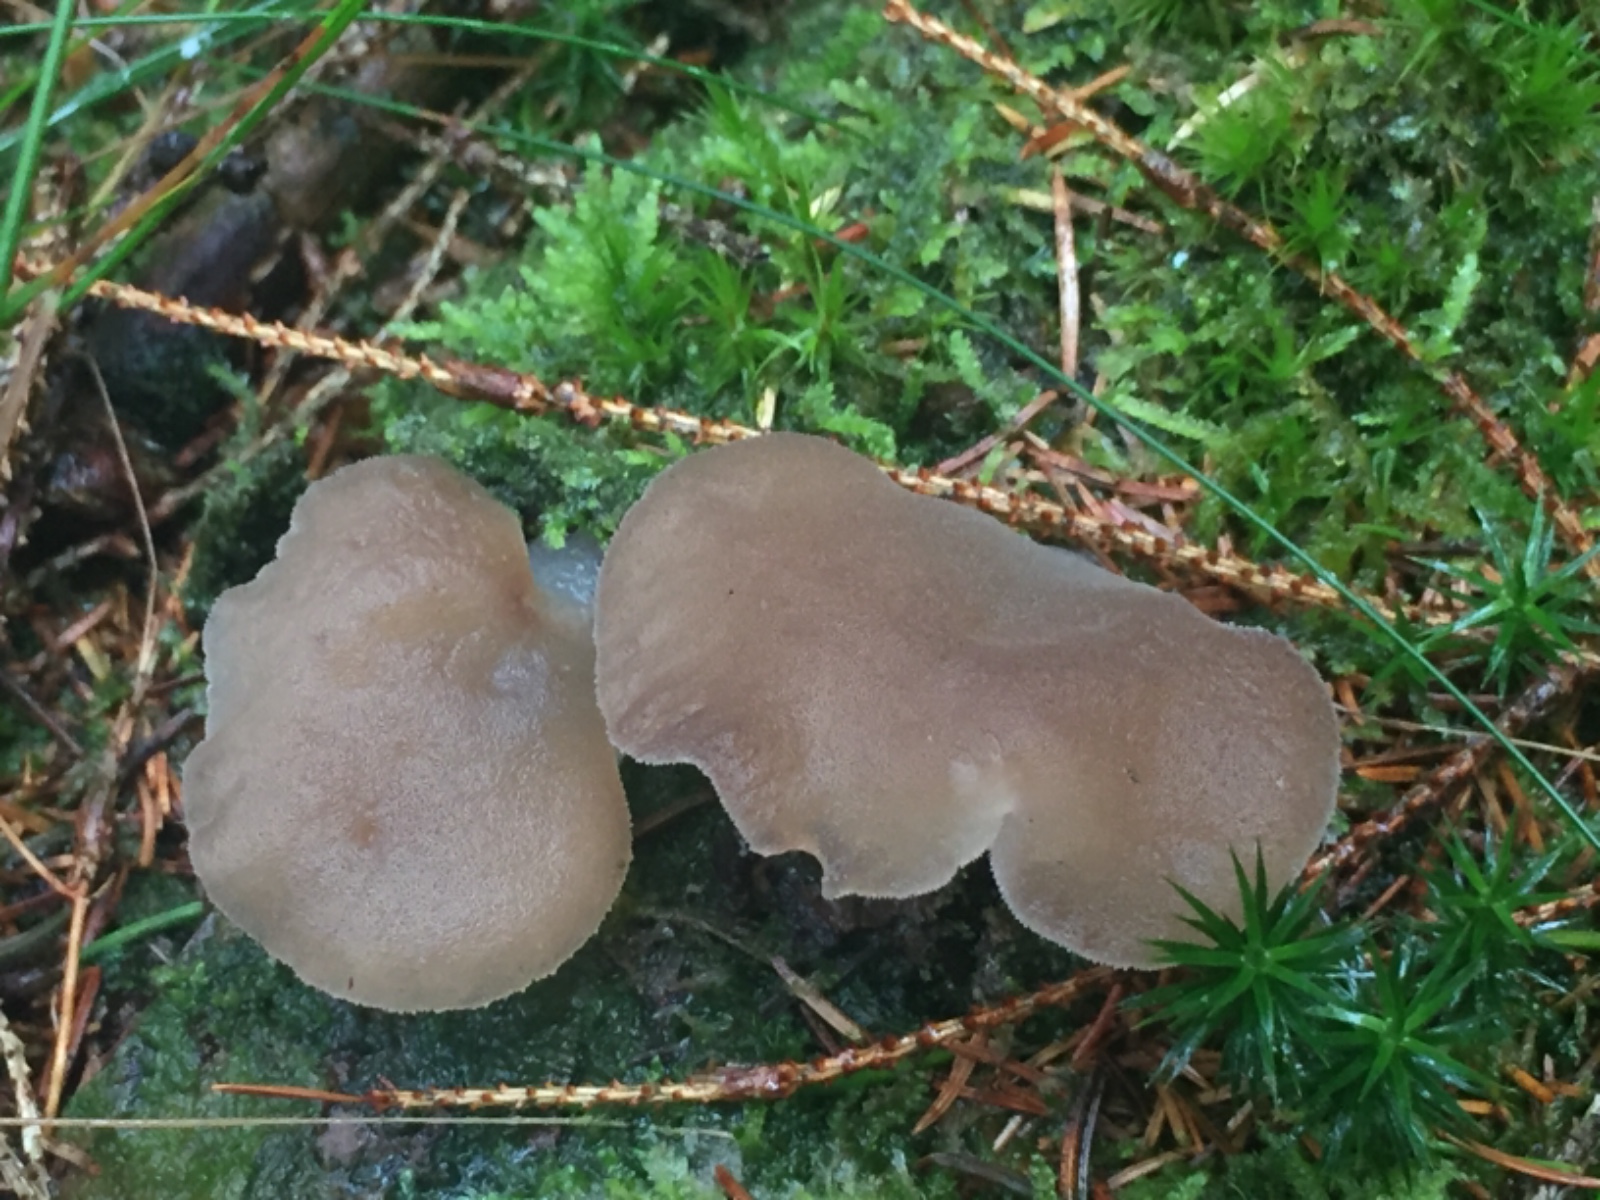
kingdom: Fungi
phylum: Basidiomycota
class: Agaricomycetes
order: Auriculariales
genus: Pseudohydnum
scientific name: Pseudohydnum gelatinosum
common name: bævretand
